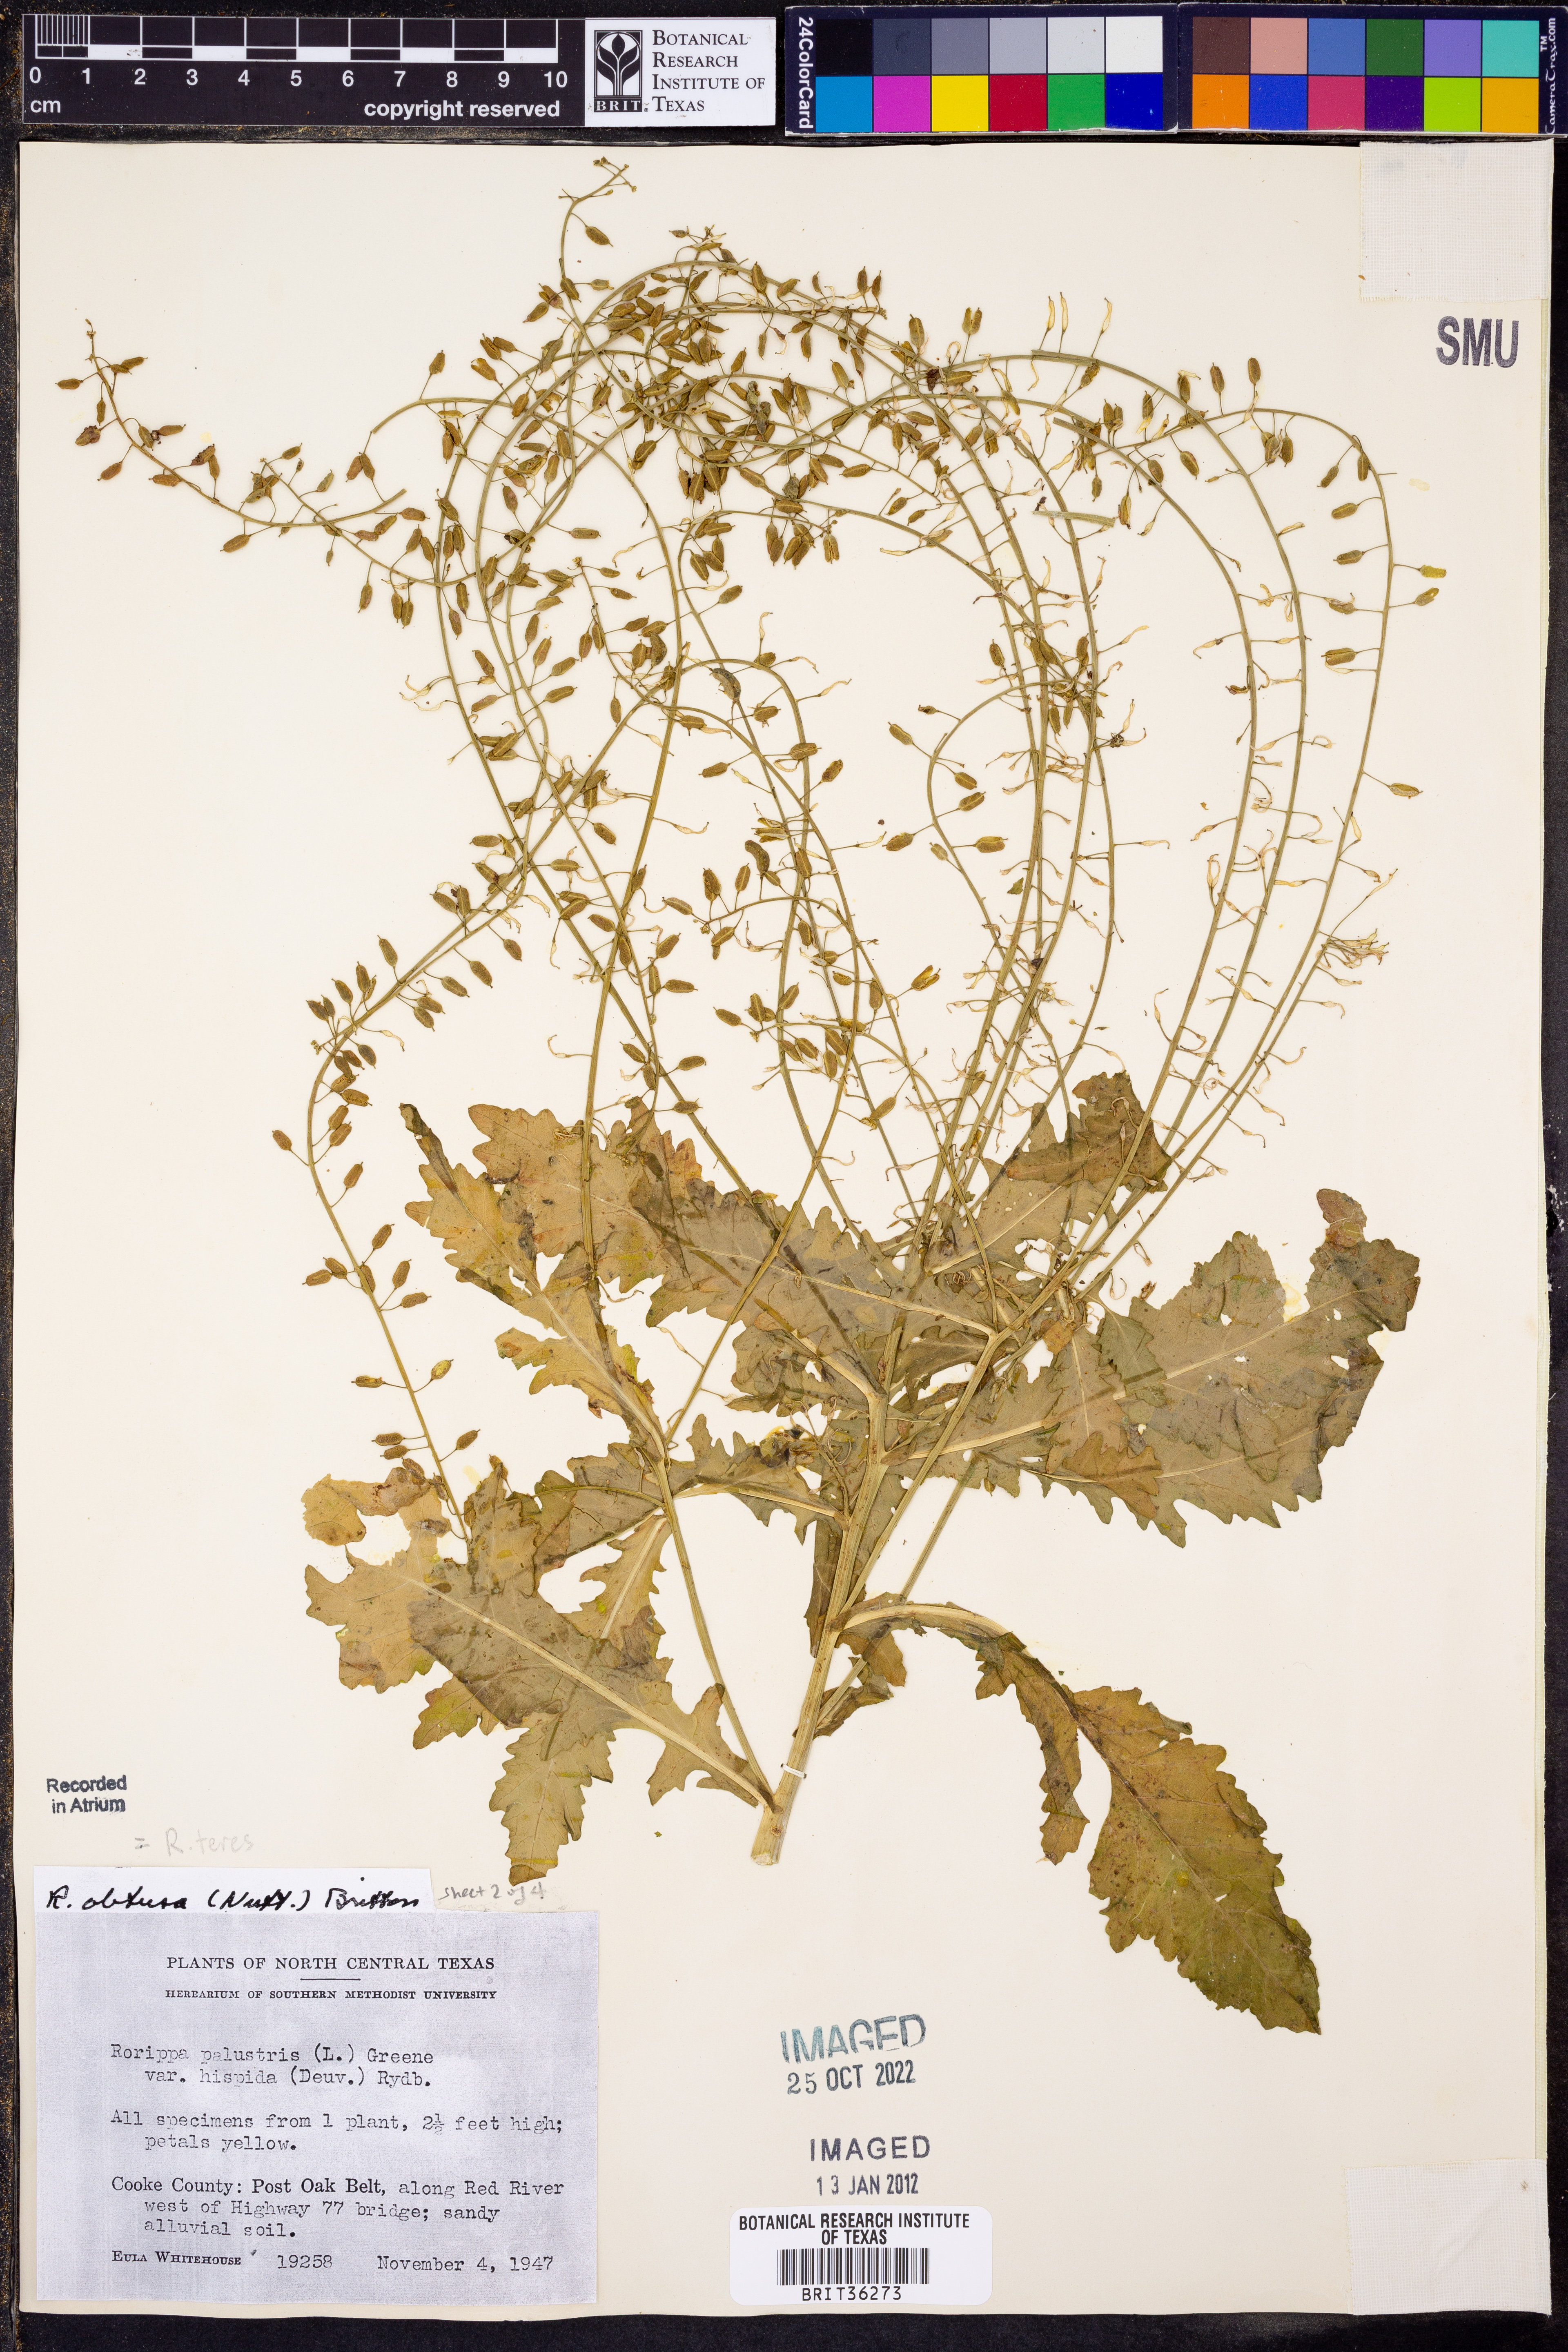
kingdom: Plantae
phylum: Tracheophyta
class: Magnoliopsida
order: Brassicales
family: Brassicaceae
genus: Rorippa
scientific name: Rorippa teres
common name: Southern marsh yellowcress
